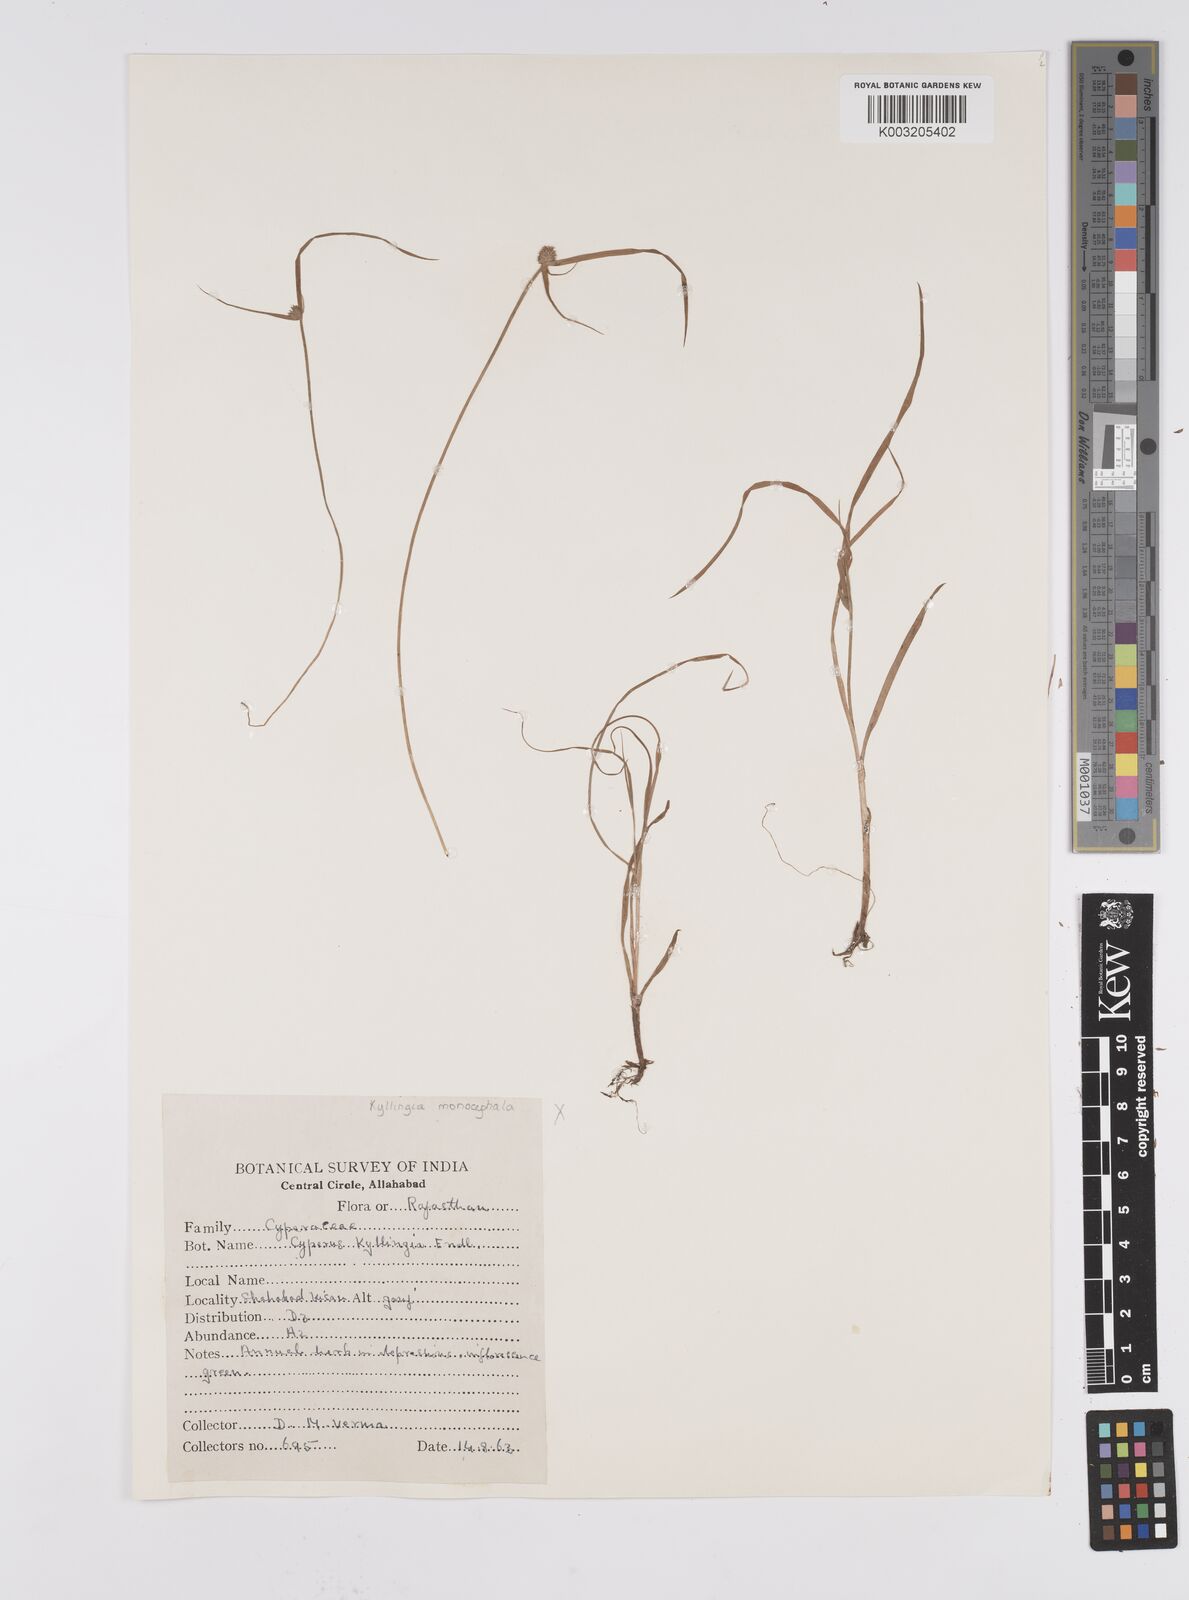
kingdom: Plantae
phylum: Tracheophyta
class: Liliopsida
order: Poales
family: Cyperaceae
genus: Cyperus
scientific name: Cyperus brevifolius
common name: Globe kyllinga
